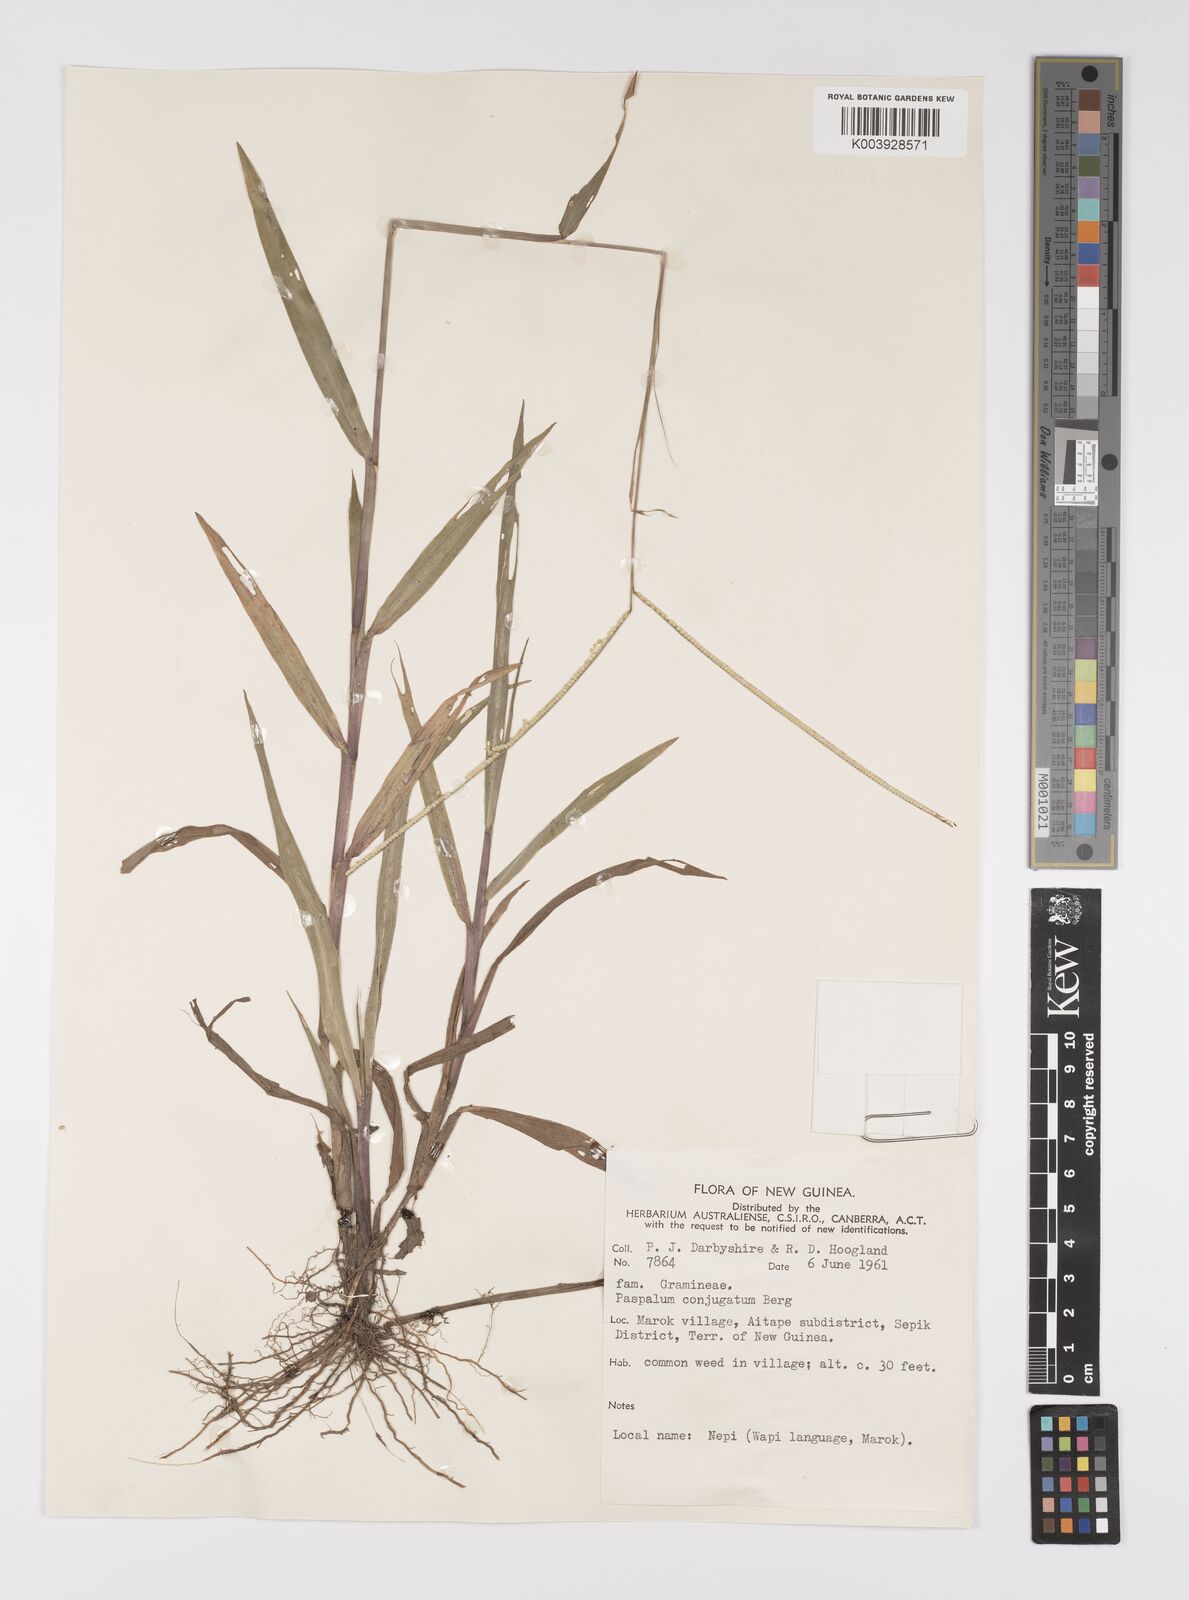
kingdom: Plantae
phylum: Tracheophyta
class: Liliopsida
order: Poales
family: Poaceae
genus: Paspalum
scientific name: Paspalum conjugatum
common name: Hilograss
